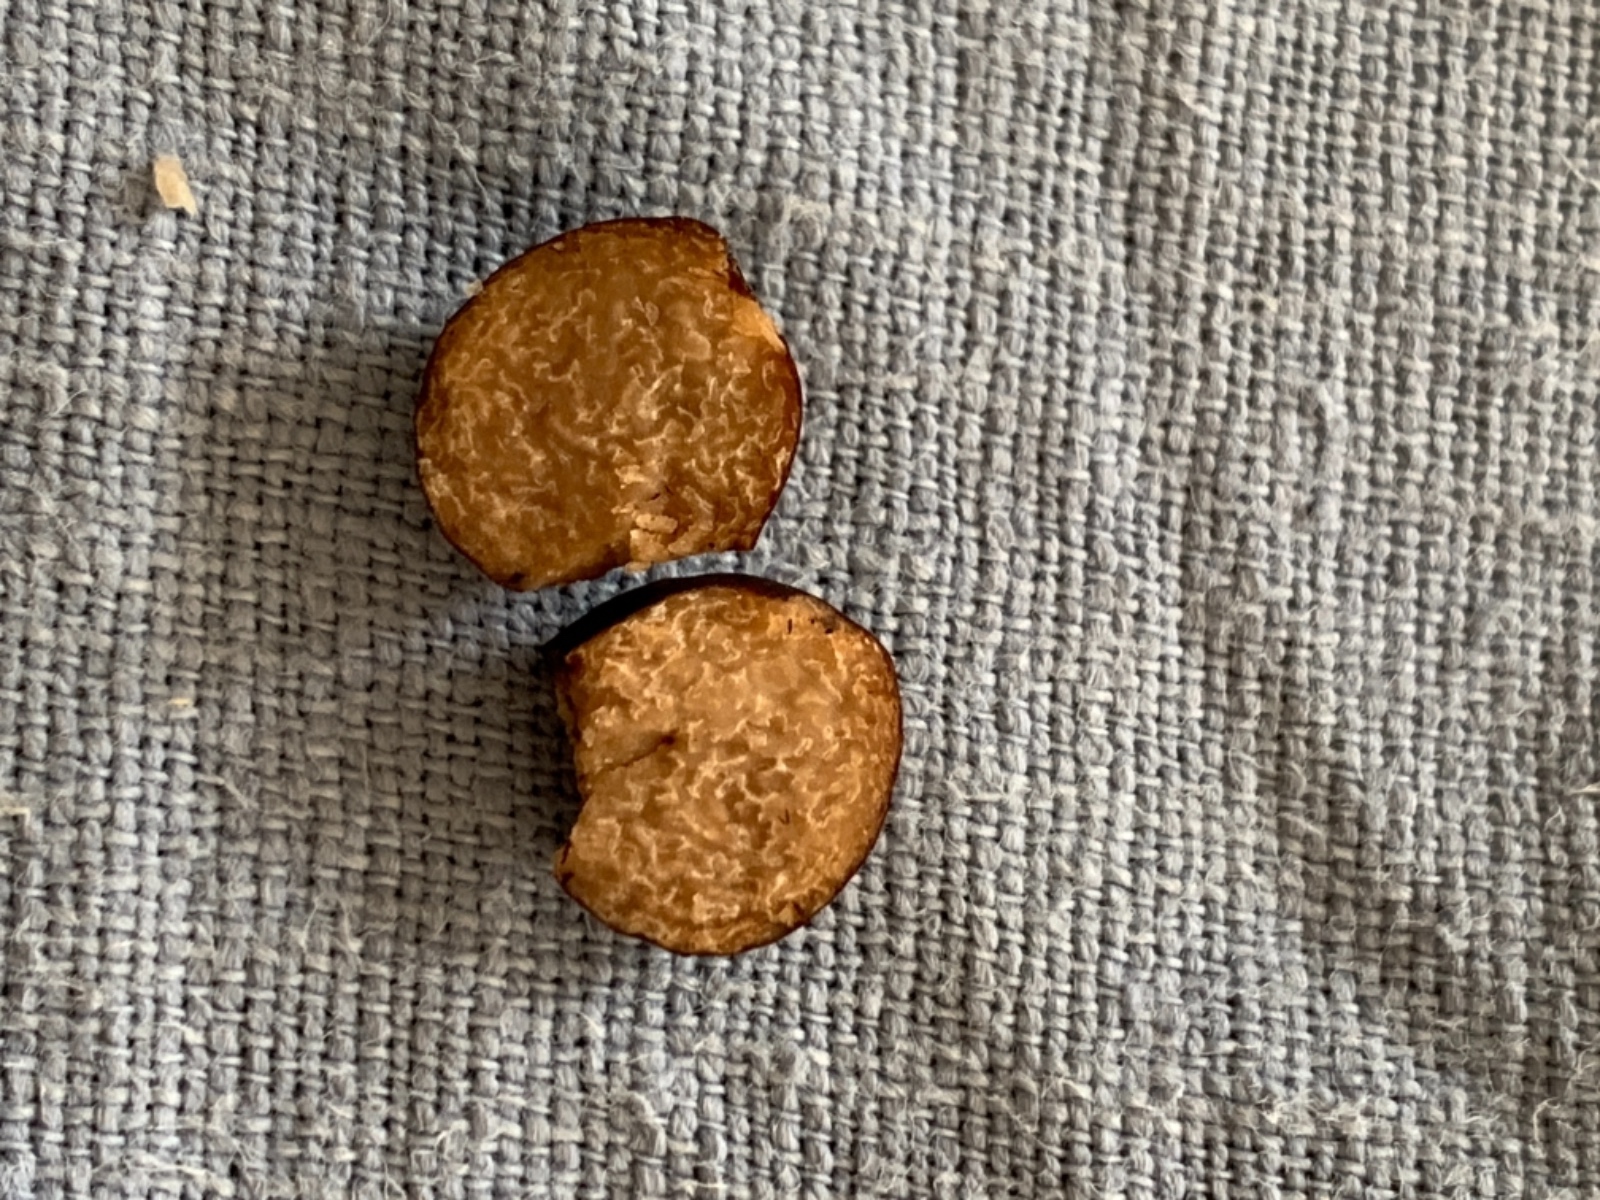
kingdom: Fungi
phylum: Ascomycota
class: Pezizomycetes
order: Pezizales
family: Tuberaceae
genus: Tuber
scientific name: Tuber
